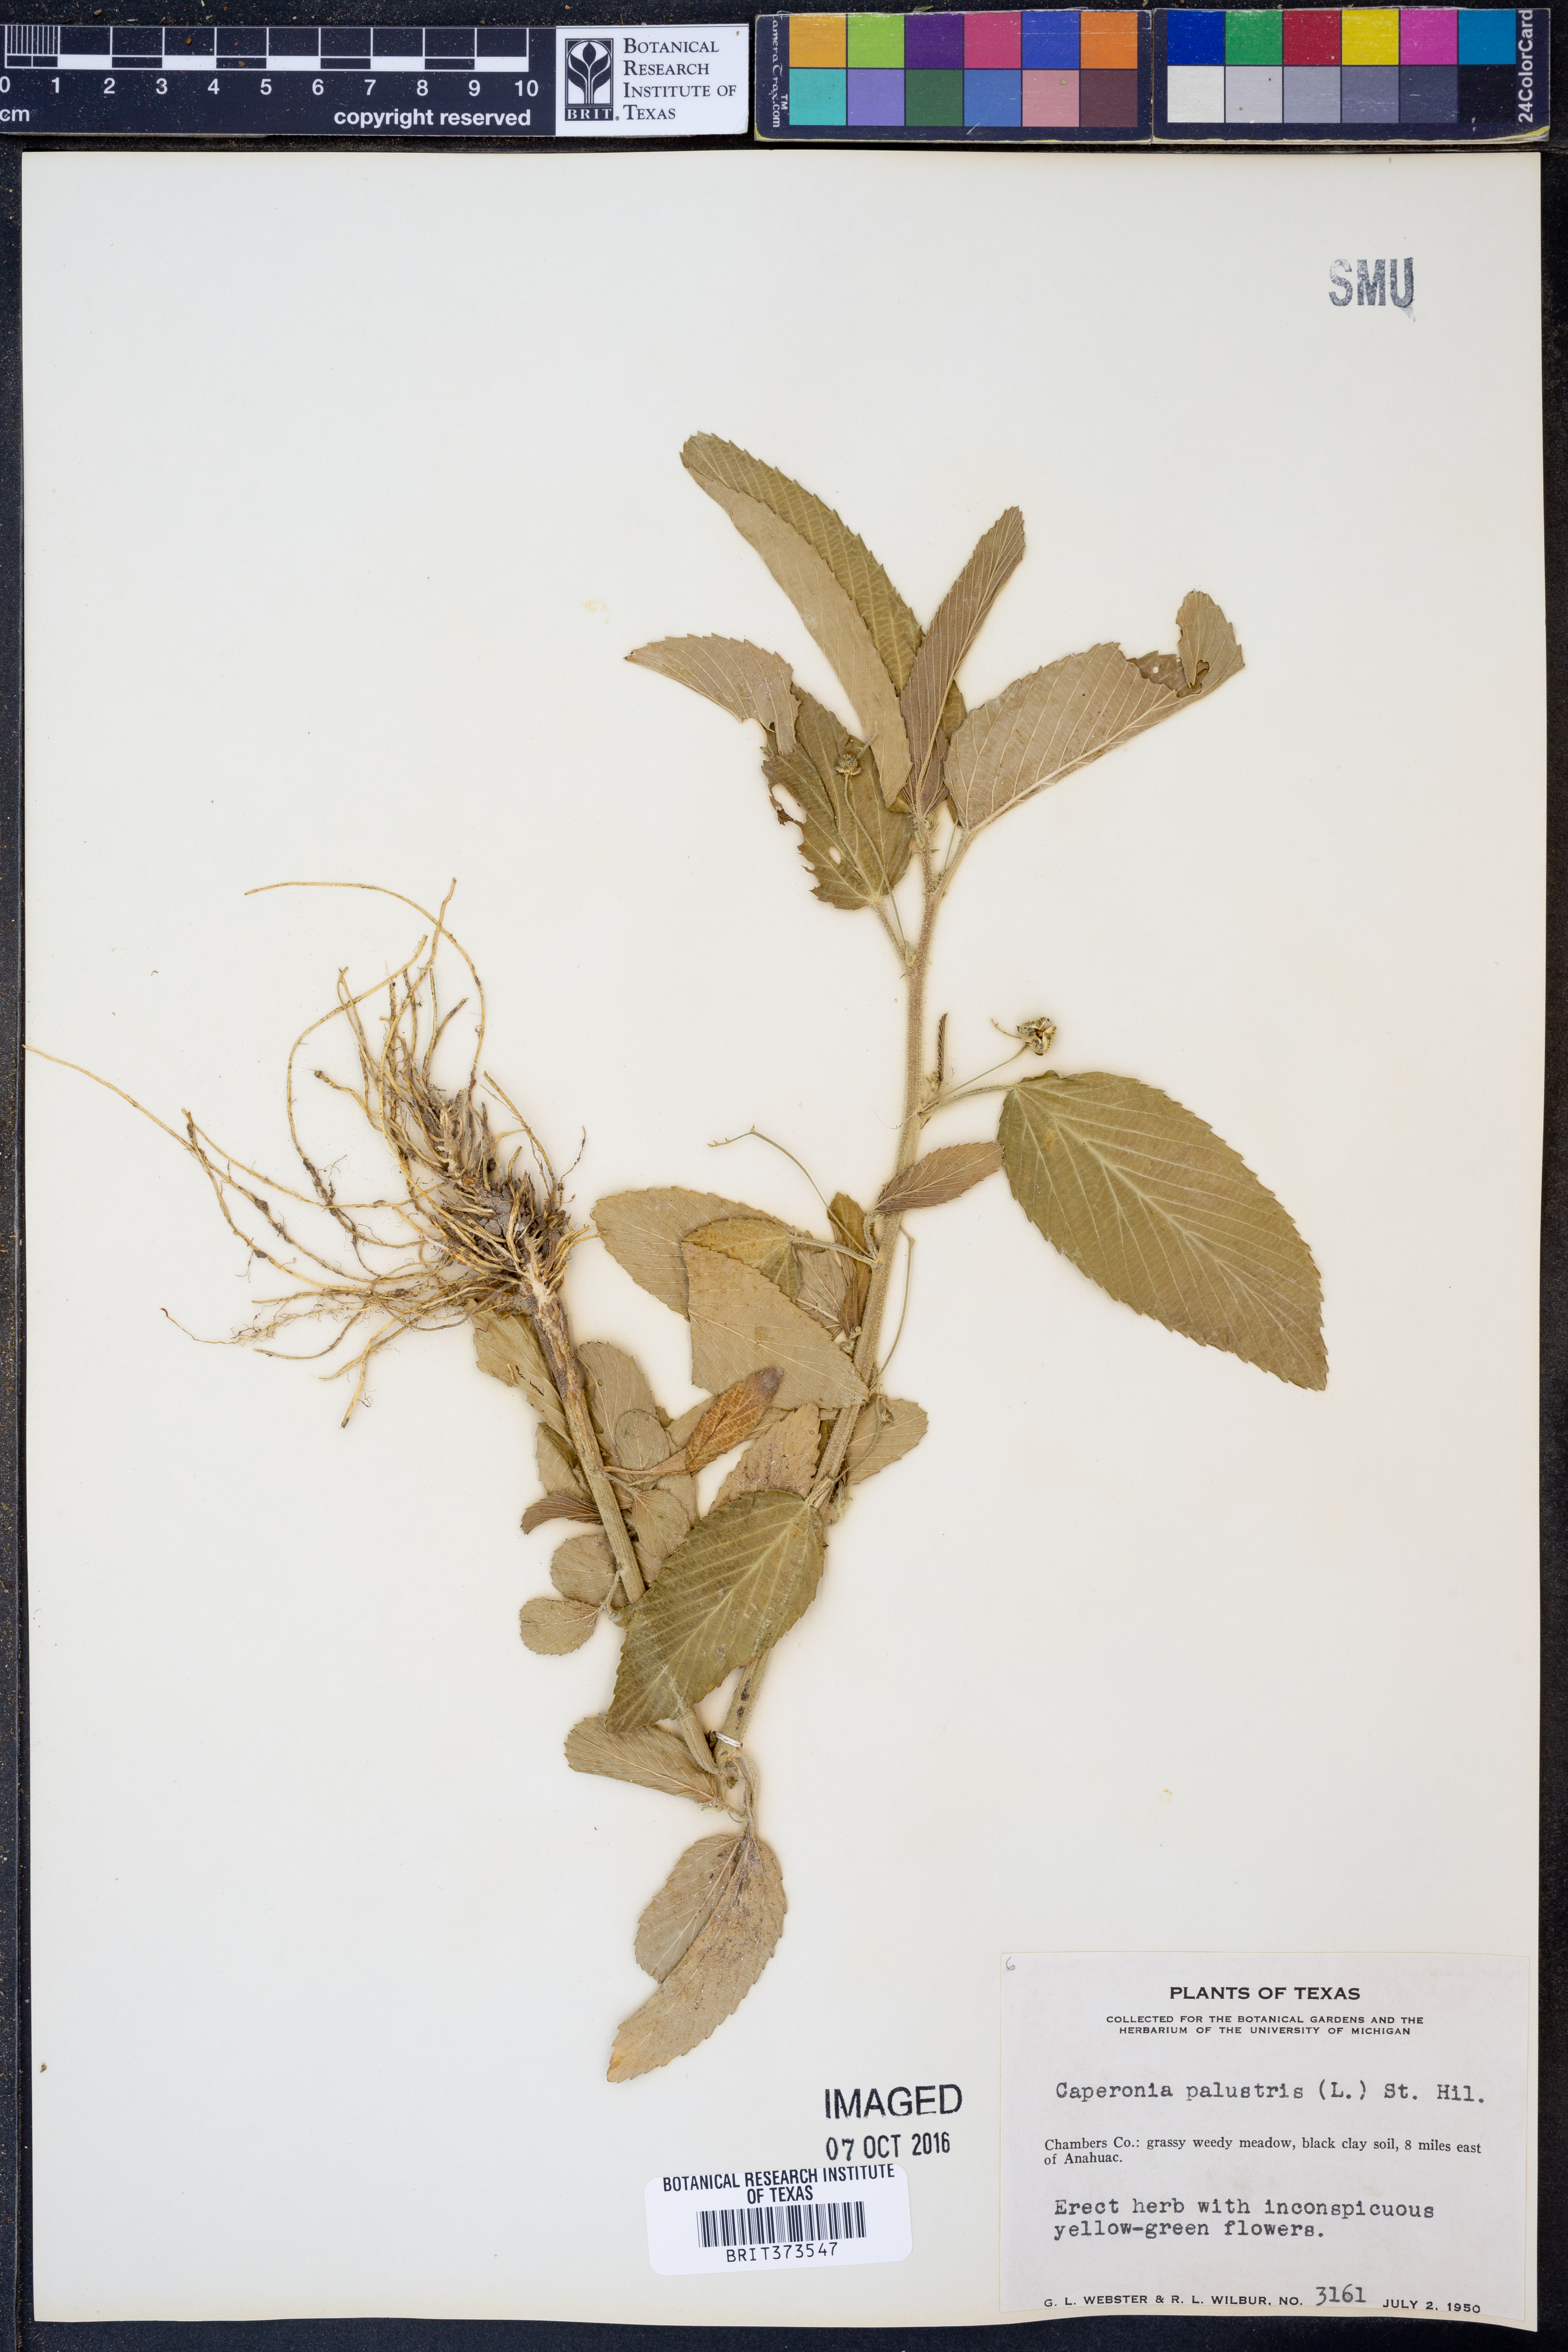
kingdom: Plantae
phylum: Tracheophyta
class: Magnoliopsida
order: Malpighiales
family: Euphorbiaceae
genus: Caperonia
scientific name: Caperonia palustris
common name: Sacatrapo
